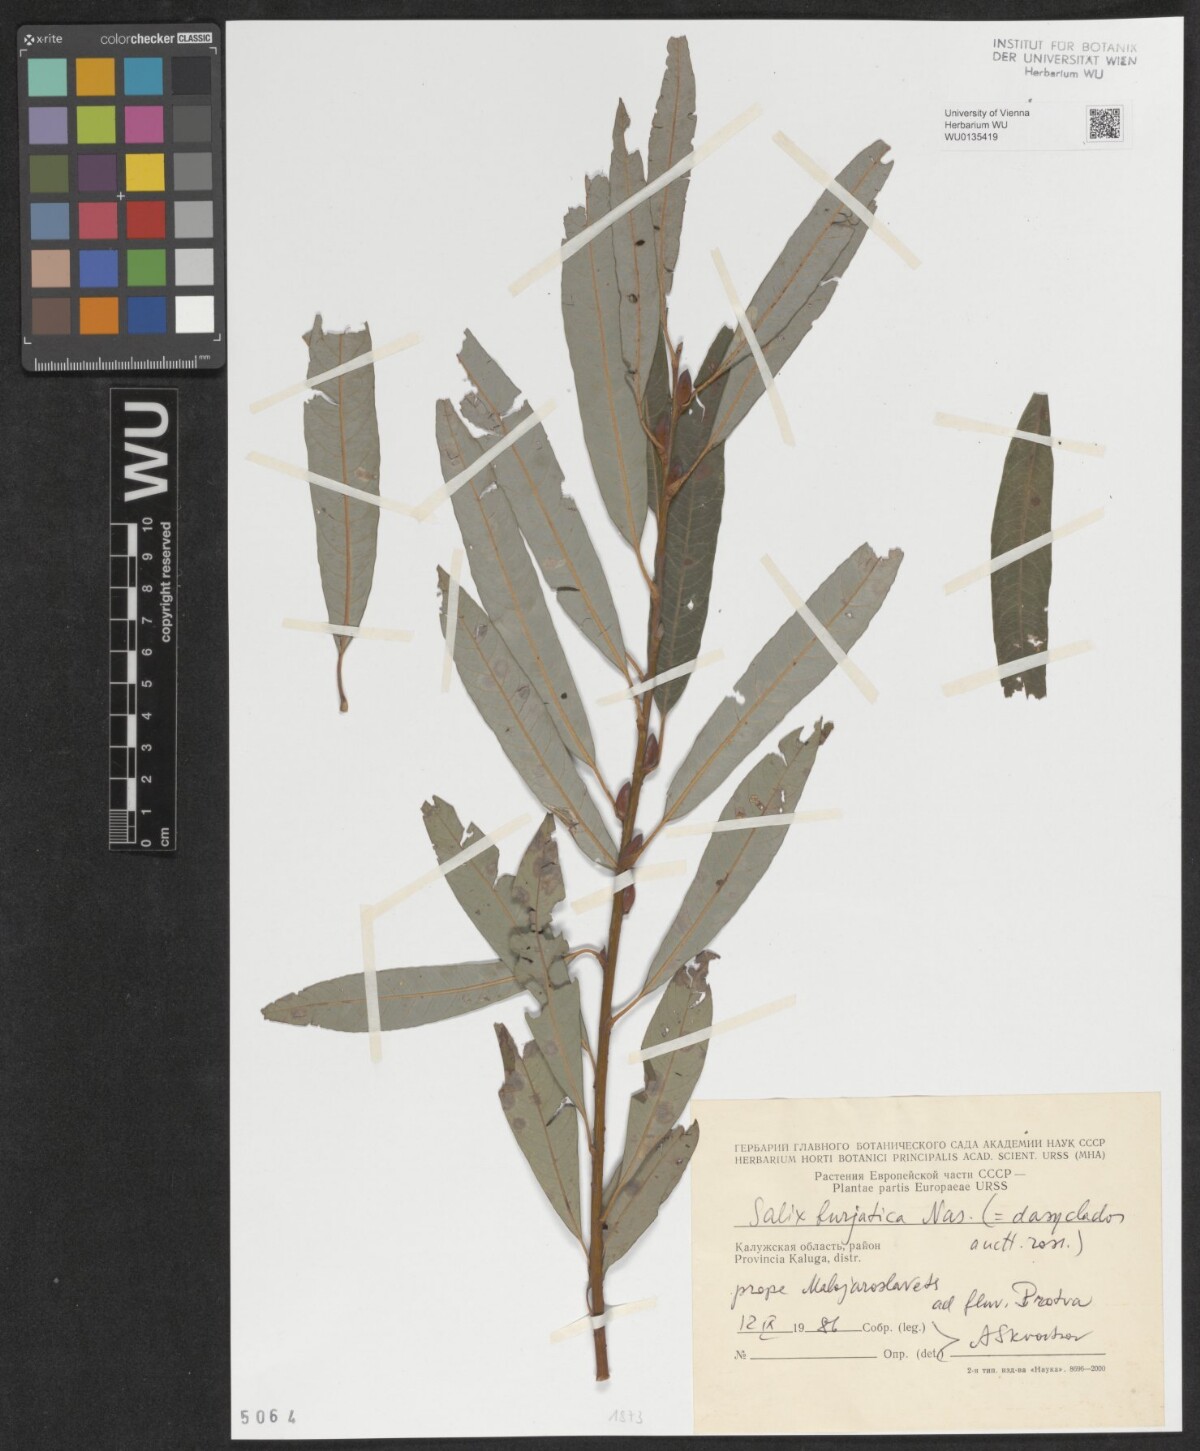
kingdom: Plantae
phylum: Tracheophyta
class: Magnoliopsida
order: Malpighiales
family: Salicaceae
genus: Salix
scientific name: Salix gmelinii
